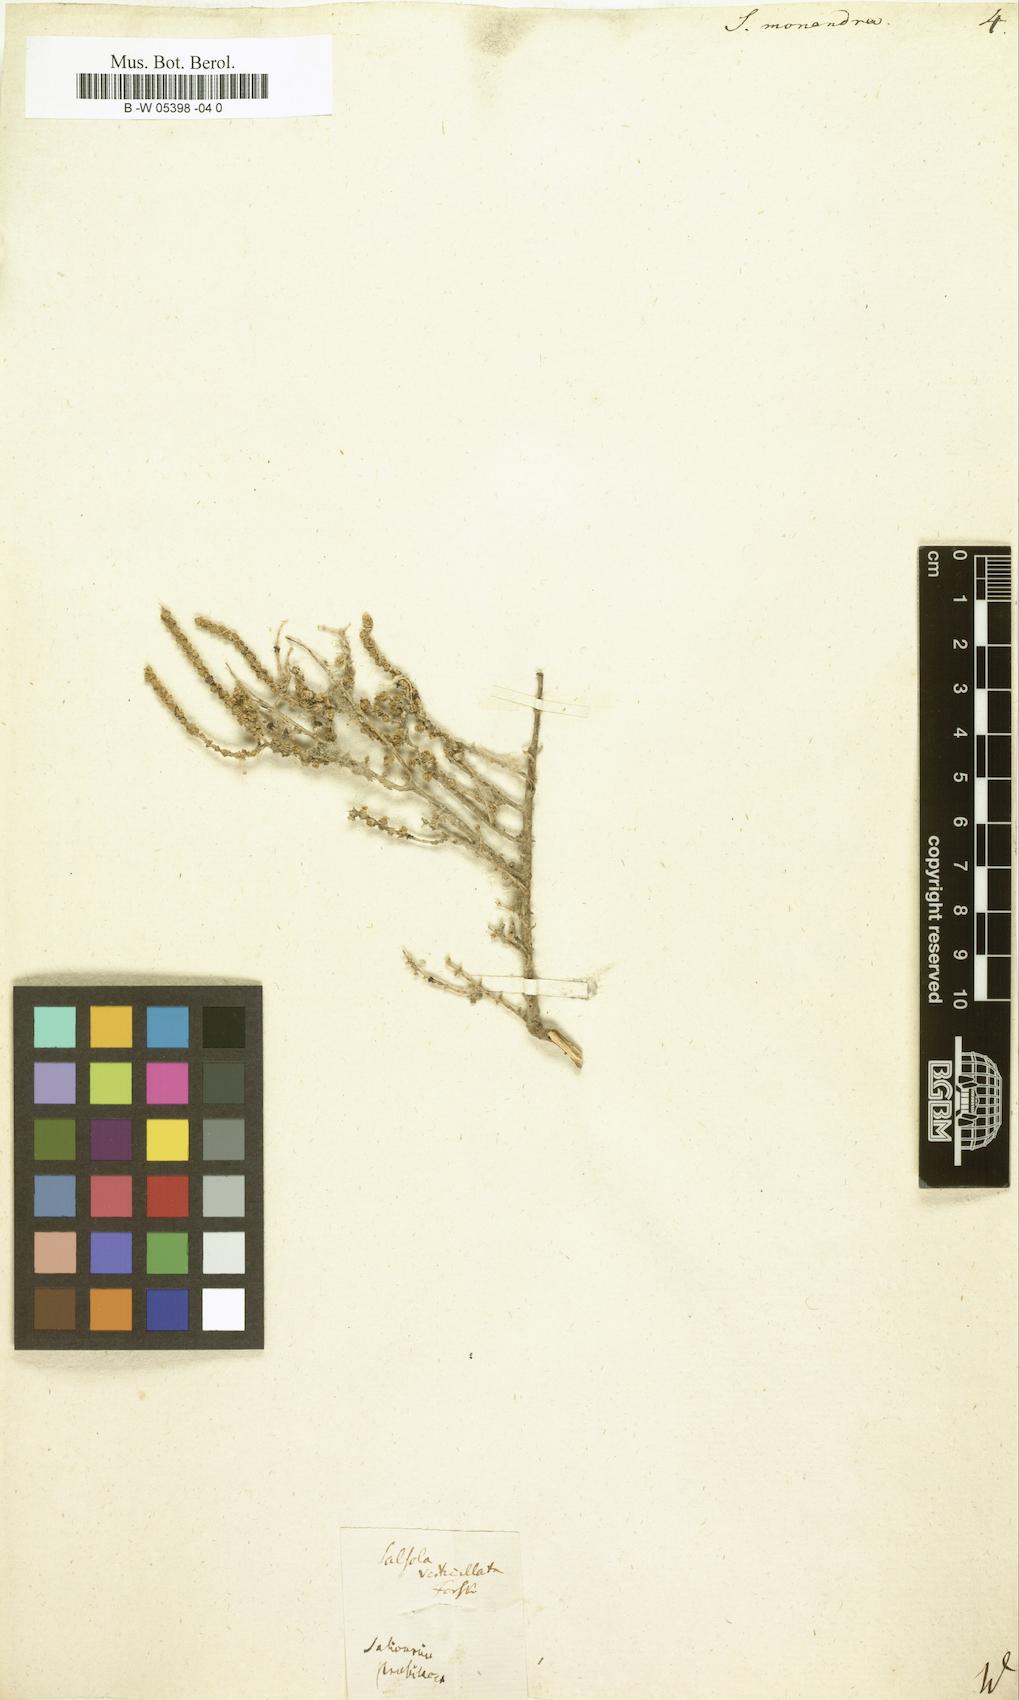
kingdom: Plantae
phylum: Tracheophyta
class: Magnoliopsida
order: Caryophyllales
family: Amaranthaceae
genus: Ofaiston
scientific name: Ofaiston monandrum
